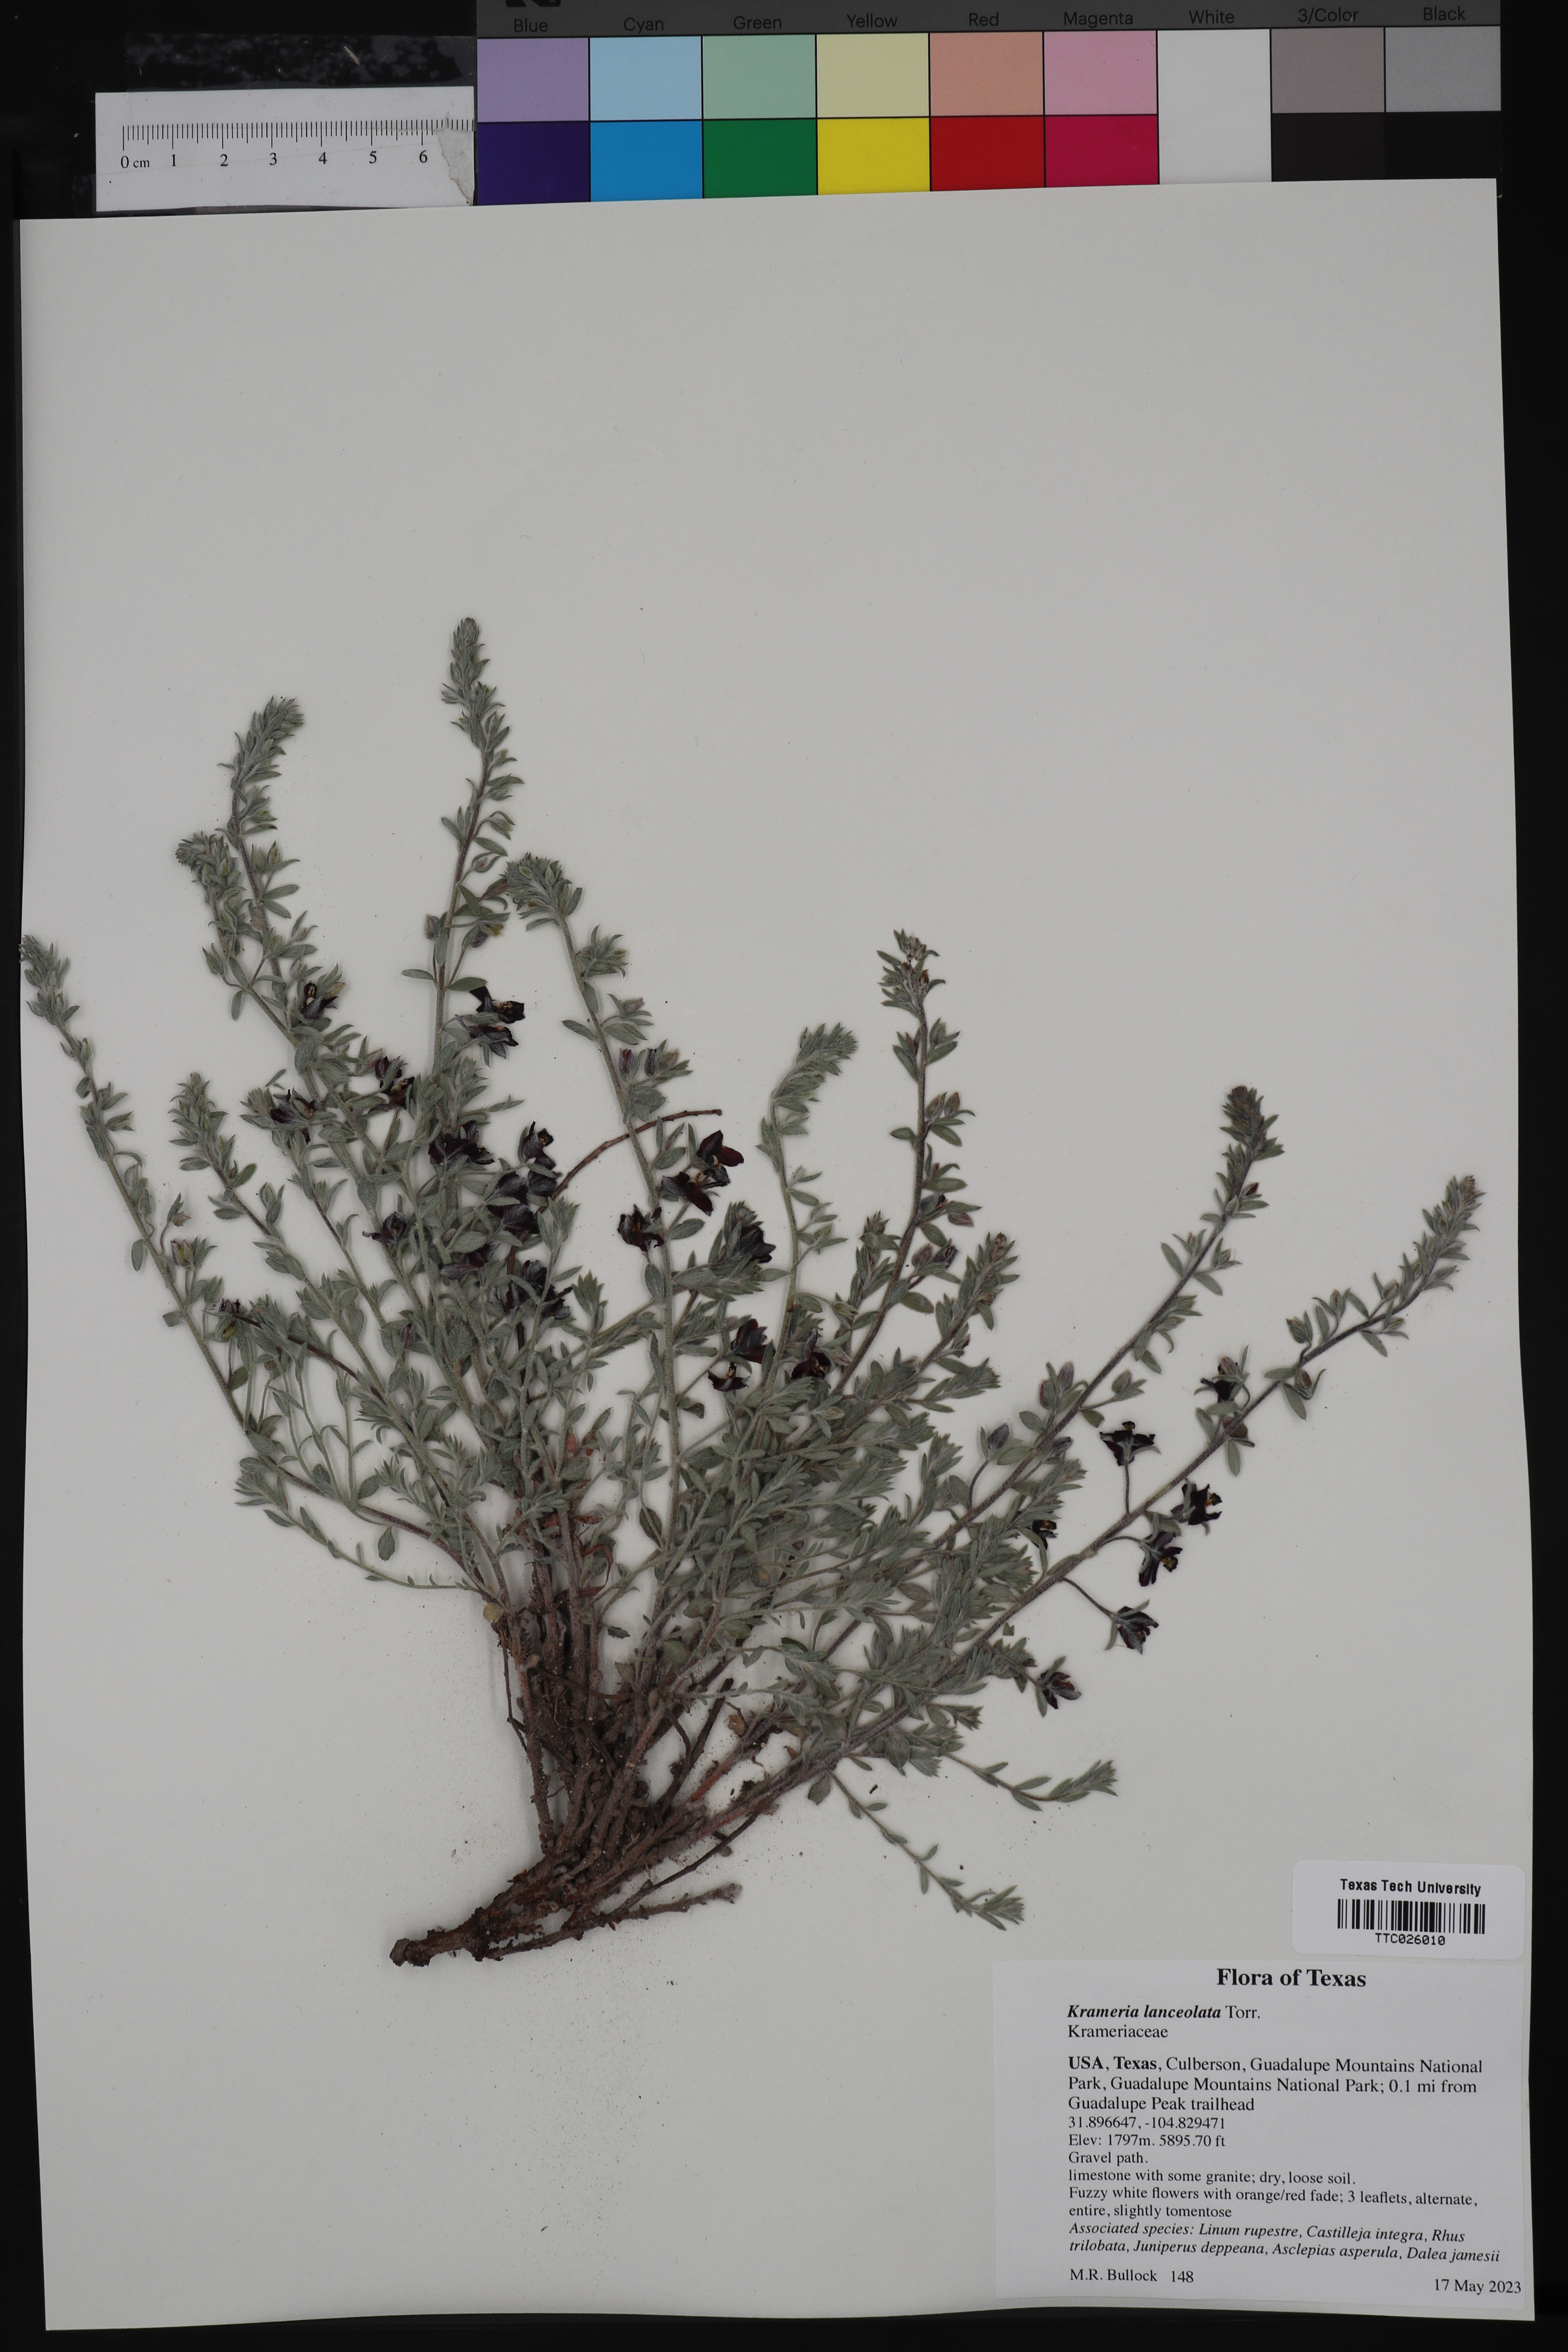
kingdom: Plantae
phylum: Tracheophyta
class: Magnoliopsida
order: Zygophyllales
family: Krameriaceae
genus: Krameria
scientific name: Krameria lanceolata
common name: Ratany
